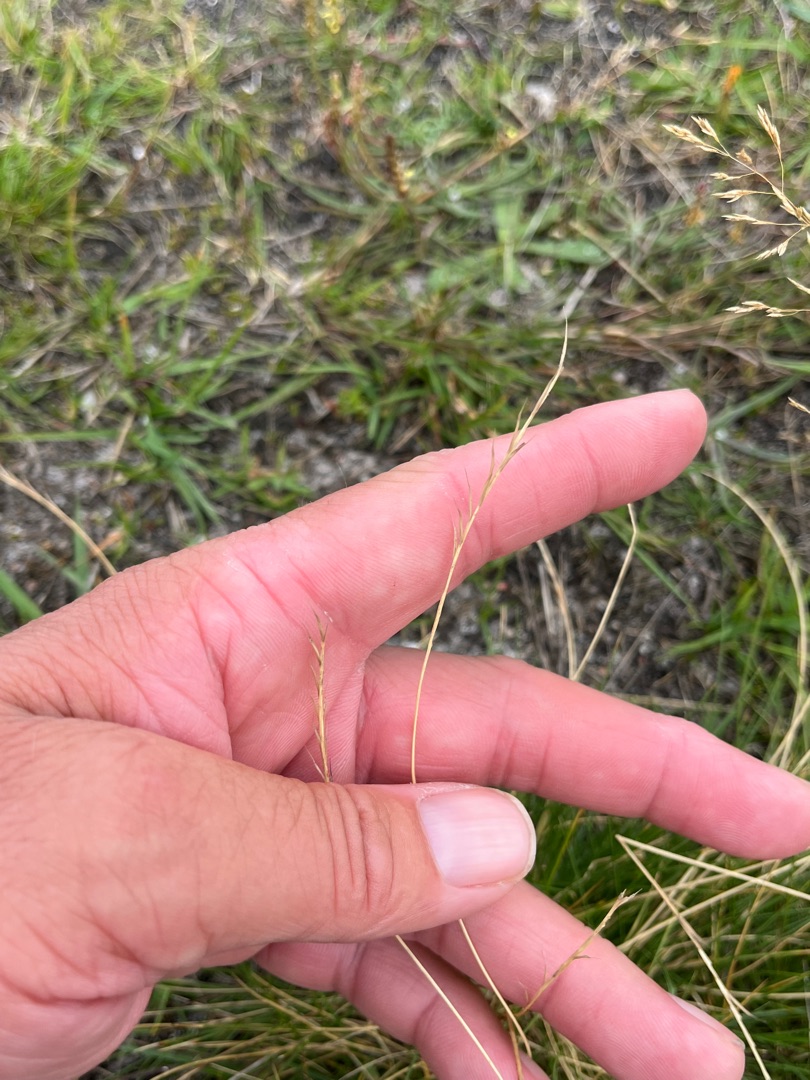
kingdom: Plantae
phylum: Tracheophyta
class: Liliopsida
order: Poales
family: Poaceae
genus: Nardus
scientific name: Nardus stricta
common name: Katteskæg
